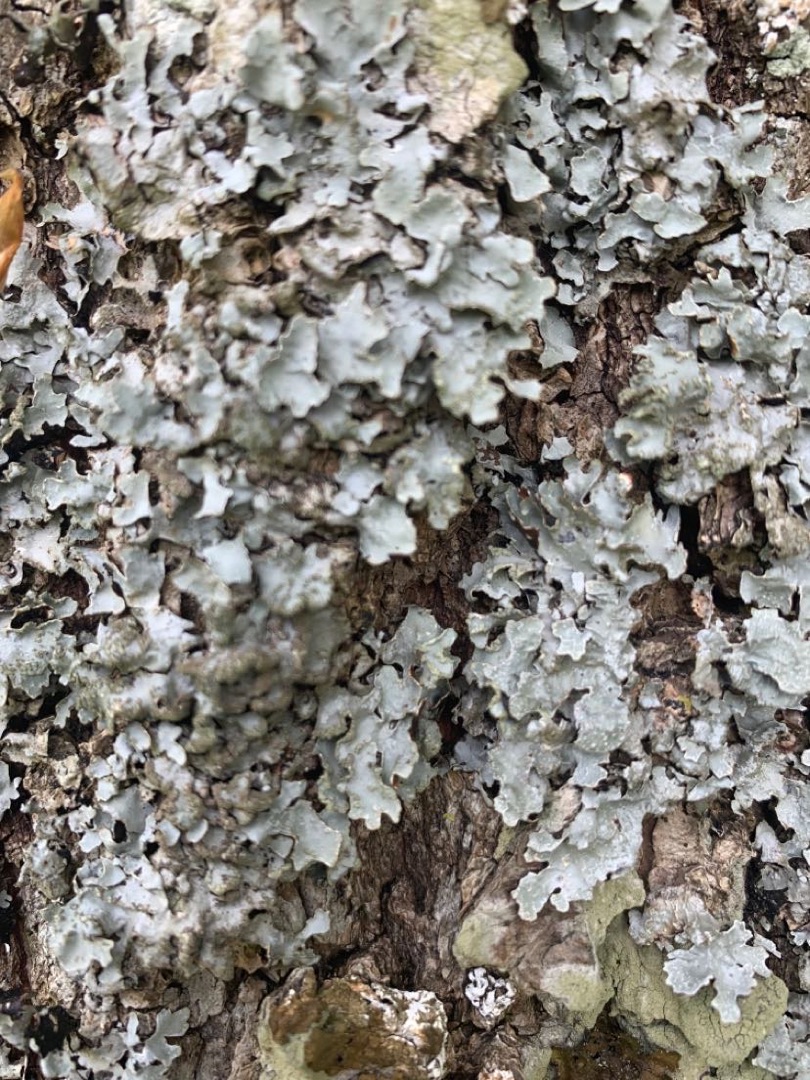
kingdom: Fungi
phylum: Ascomycota
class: Lecanoromycetes
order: Lecanorales
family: Parmeliaceae
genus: Parmelia
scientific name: Parmelia sulcata
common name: Rynket skållav
